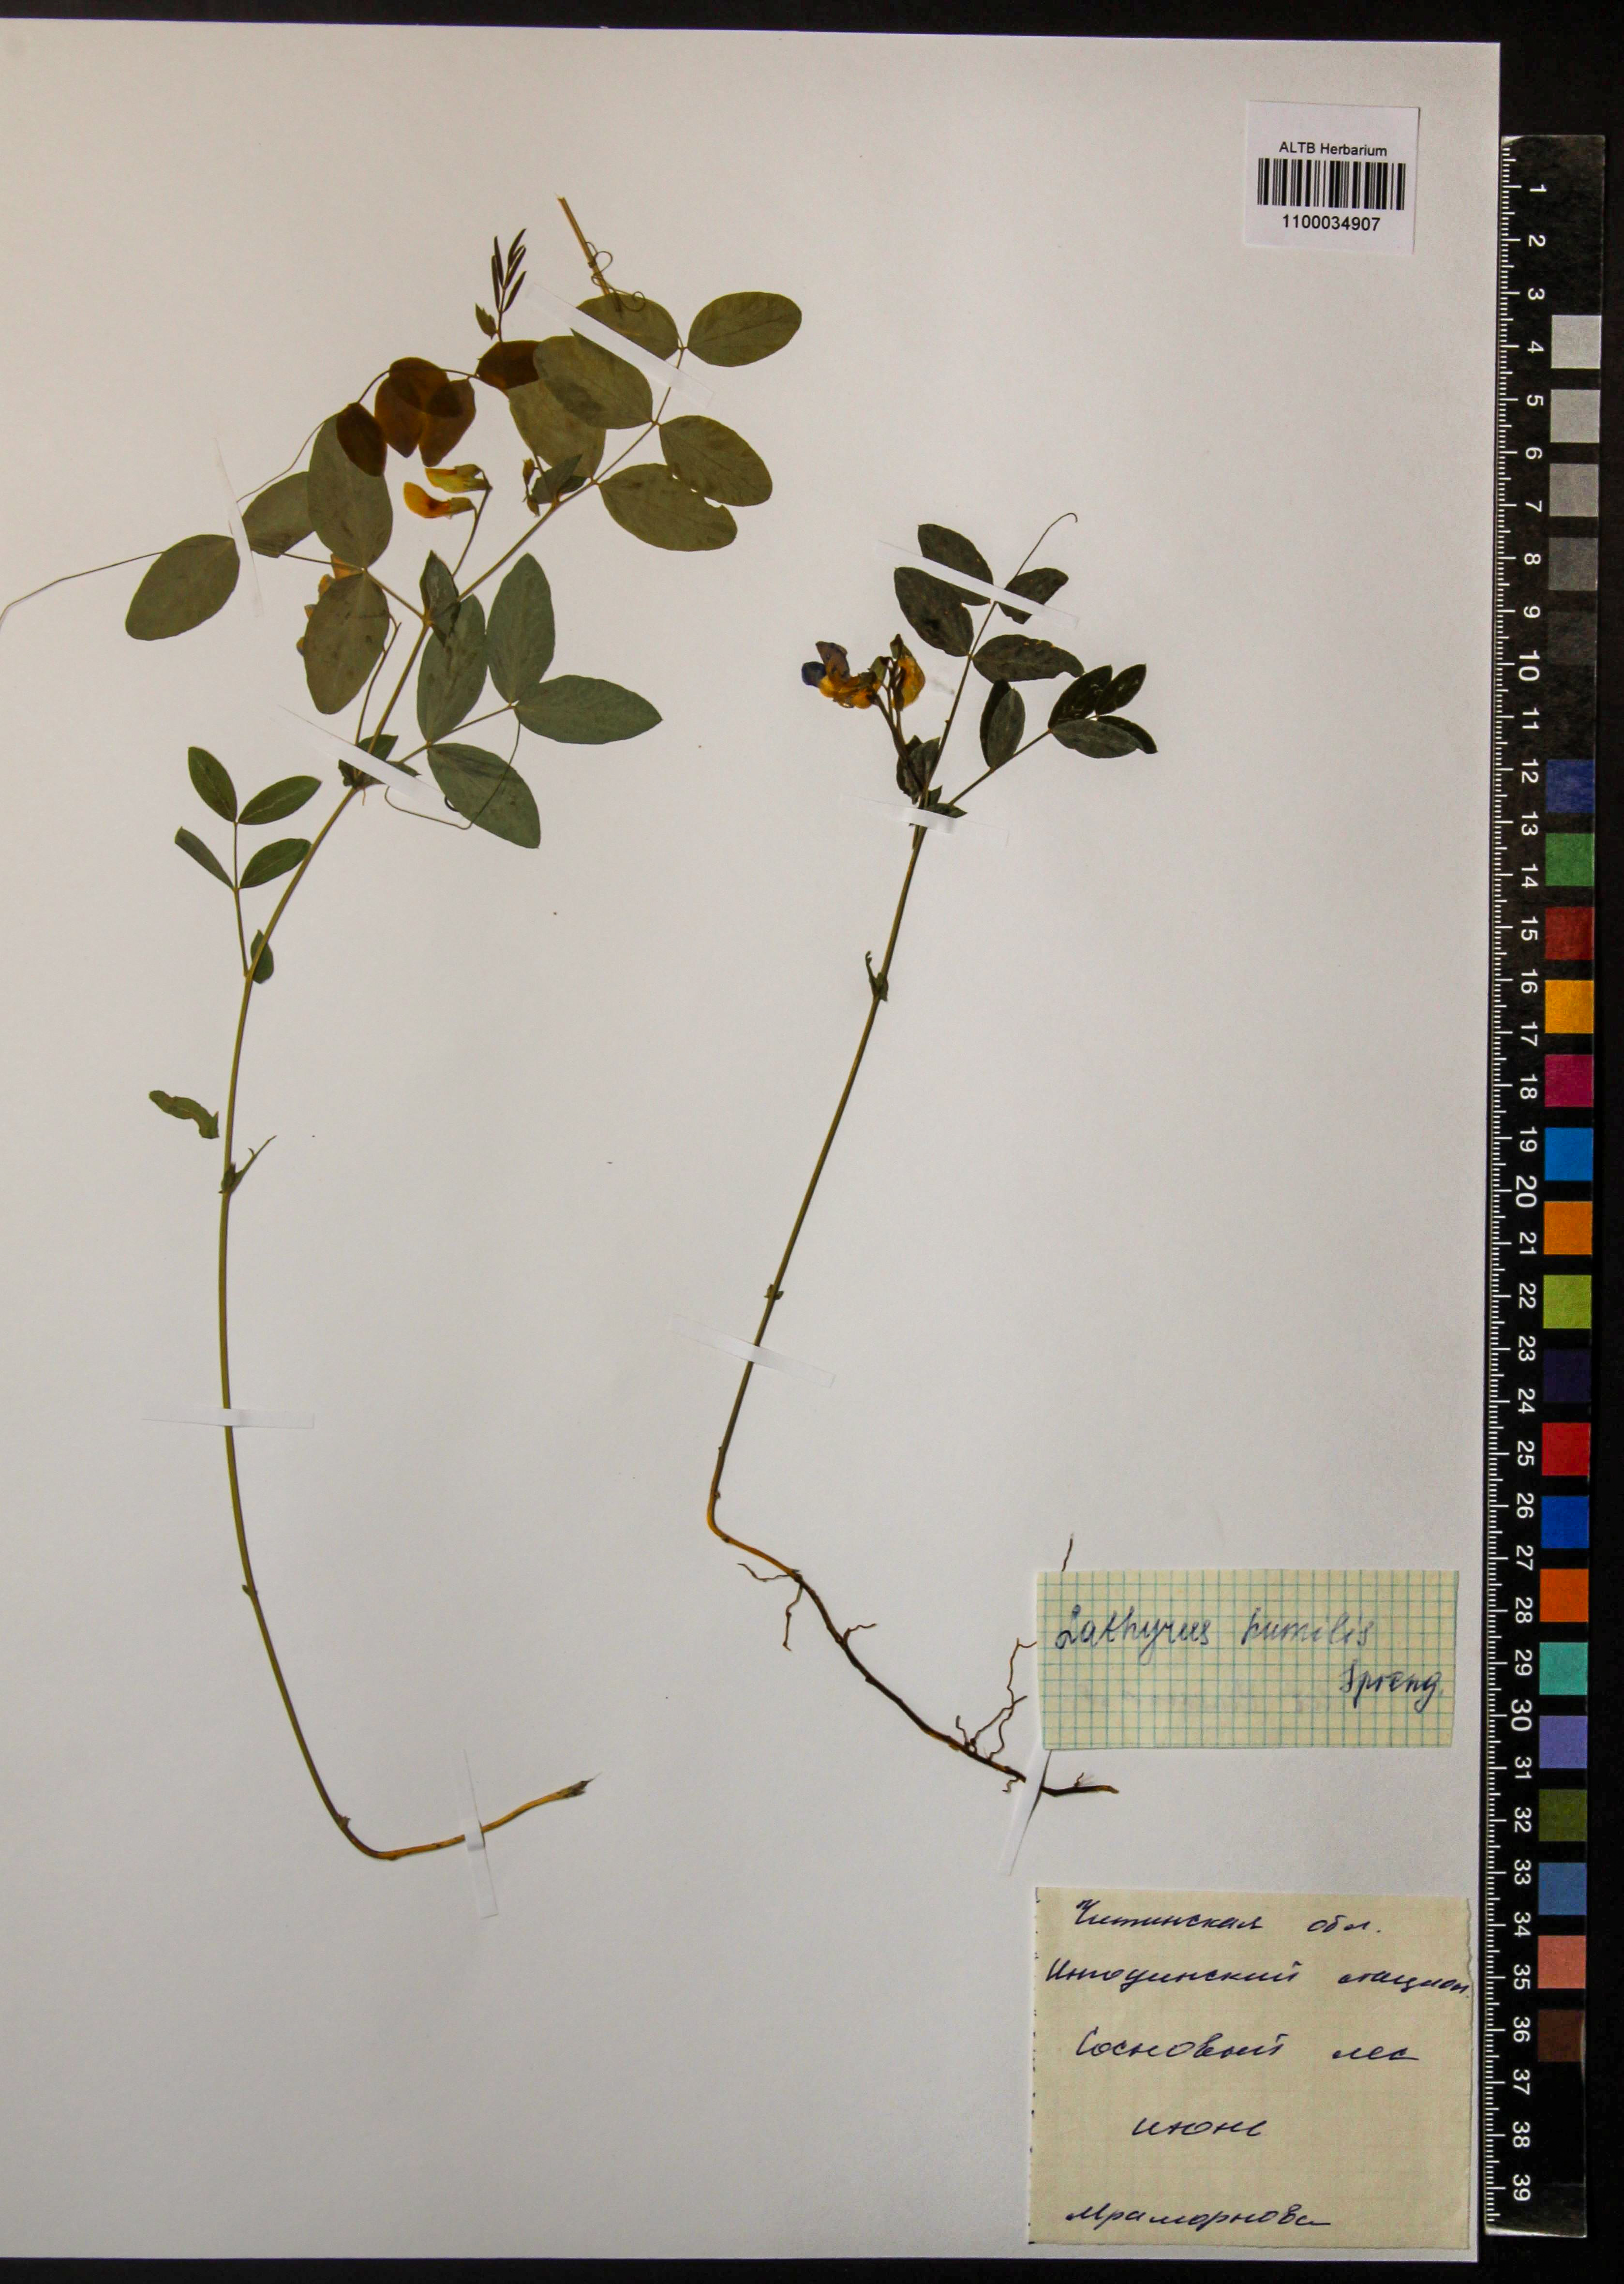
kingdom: Plantae
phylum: Tracheophyta
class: Magnoliopsida
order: Fabales
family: Fabaceae
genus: Lathyrus
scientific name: Lathyrus humilis
